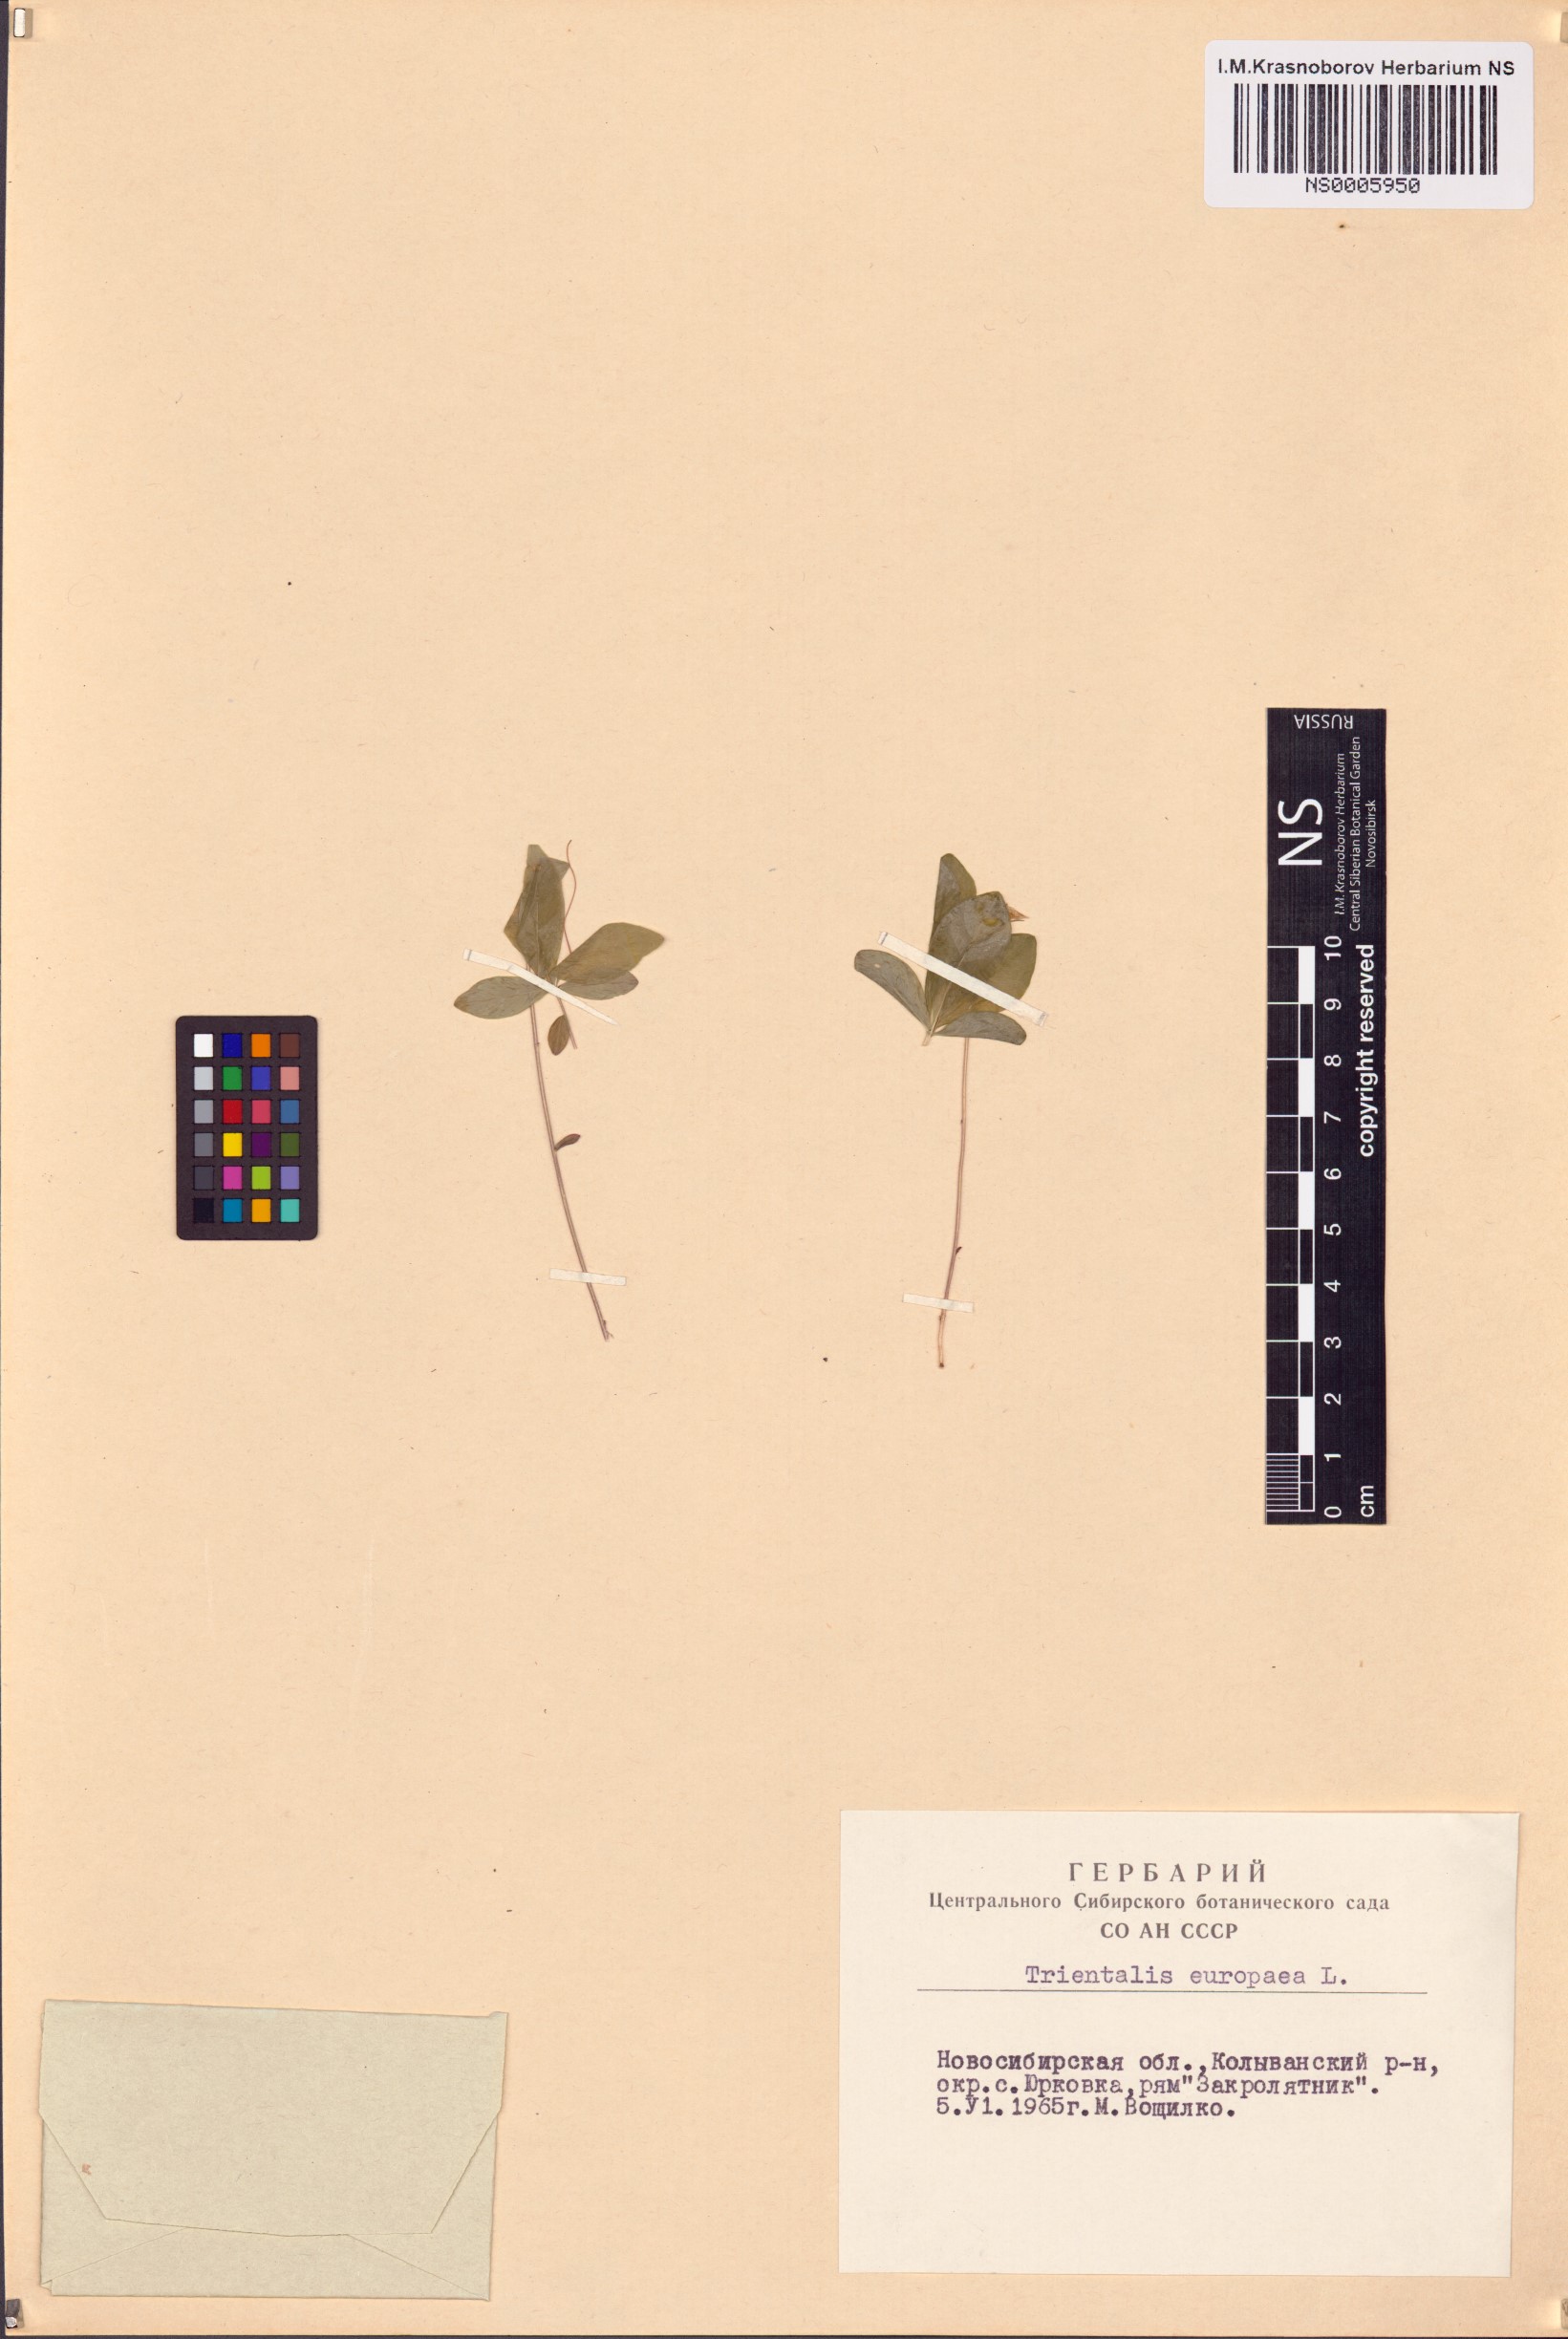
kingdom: Plantae
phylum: Tracheophyta
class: Magnoliopsida
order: Ericales
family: Primulaceae
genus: Lysimachia
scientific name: Lysimachia europaea
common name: Arctic starflower
